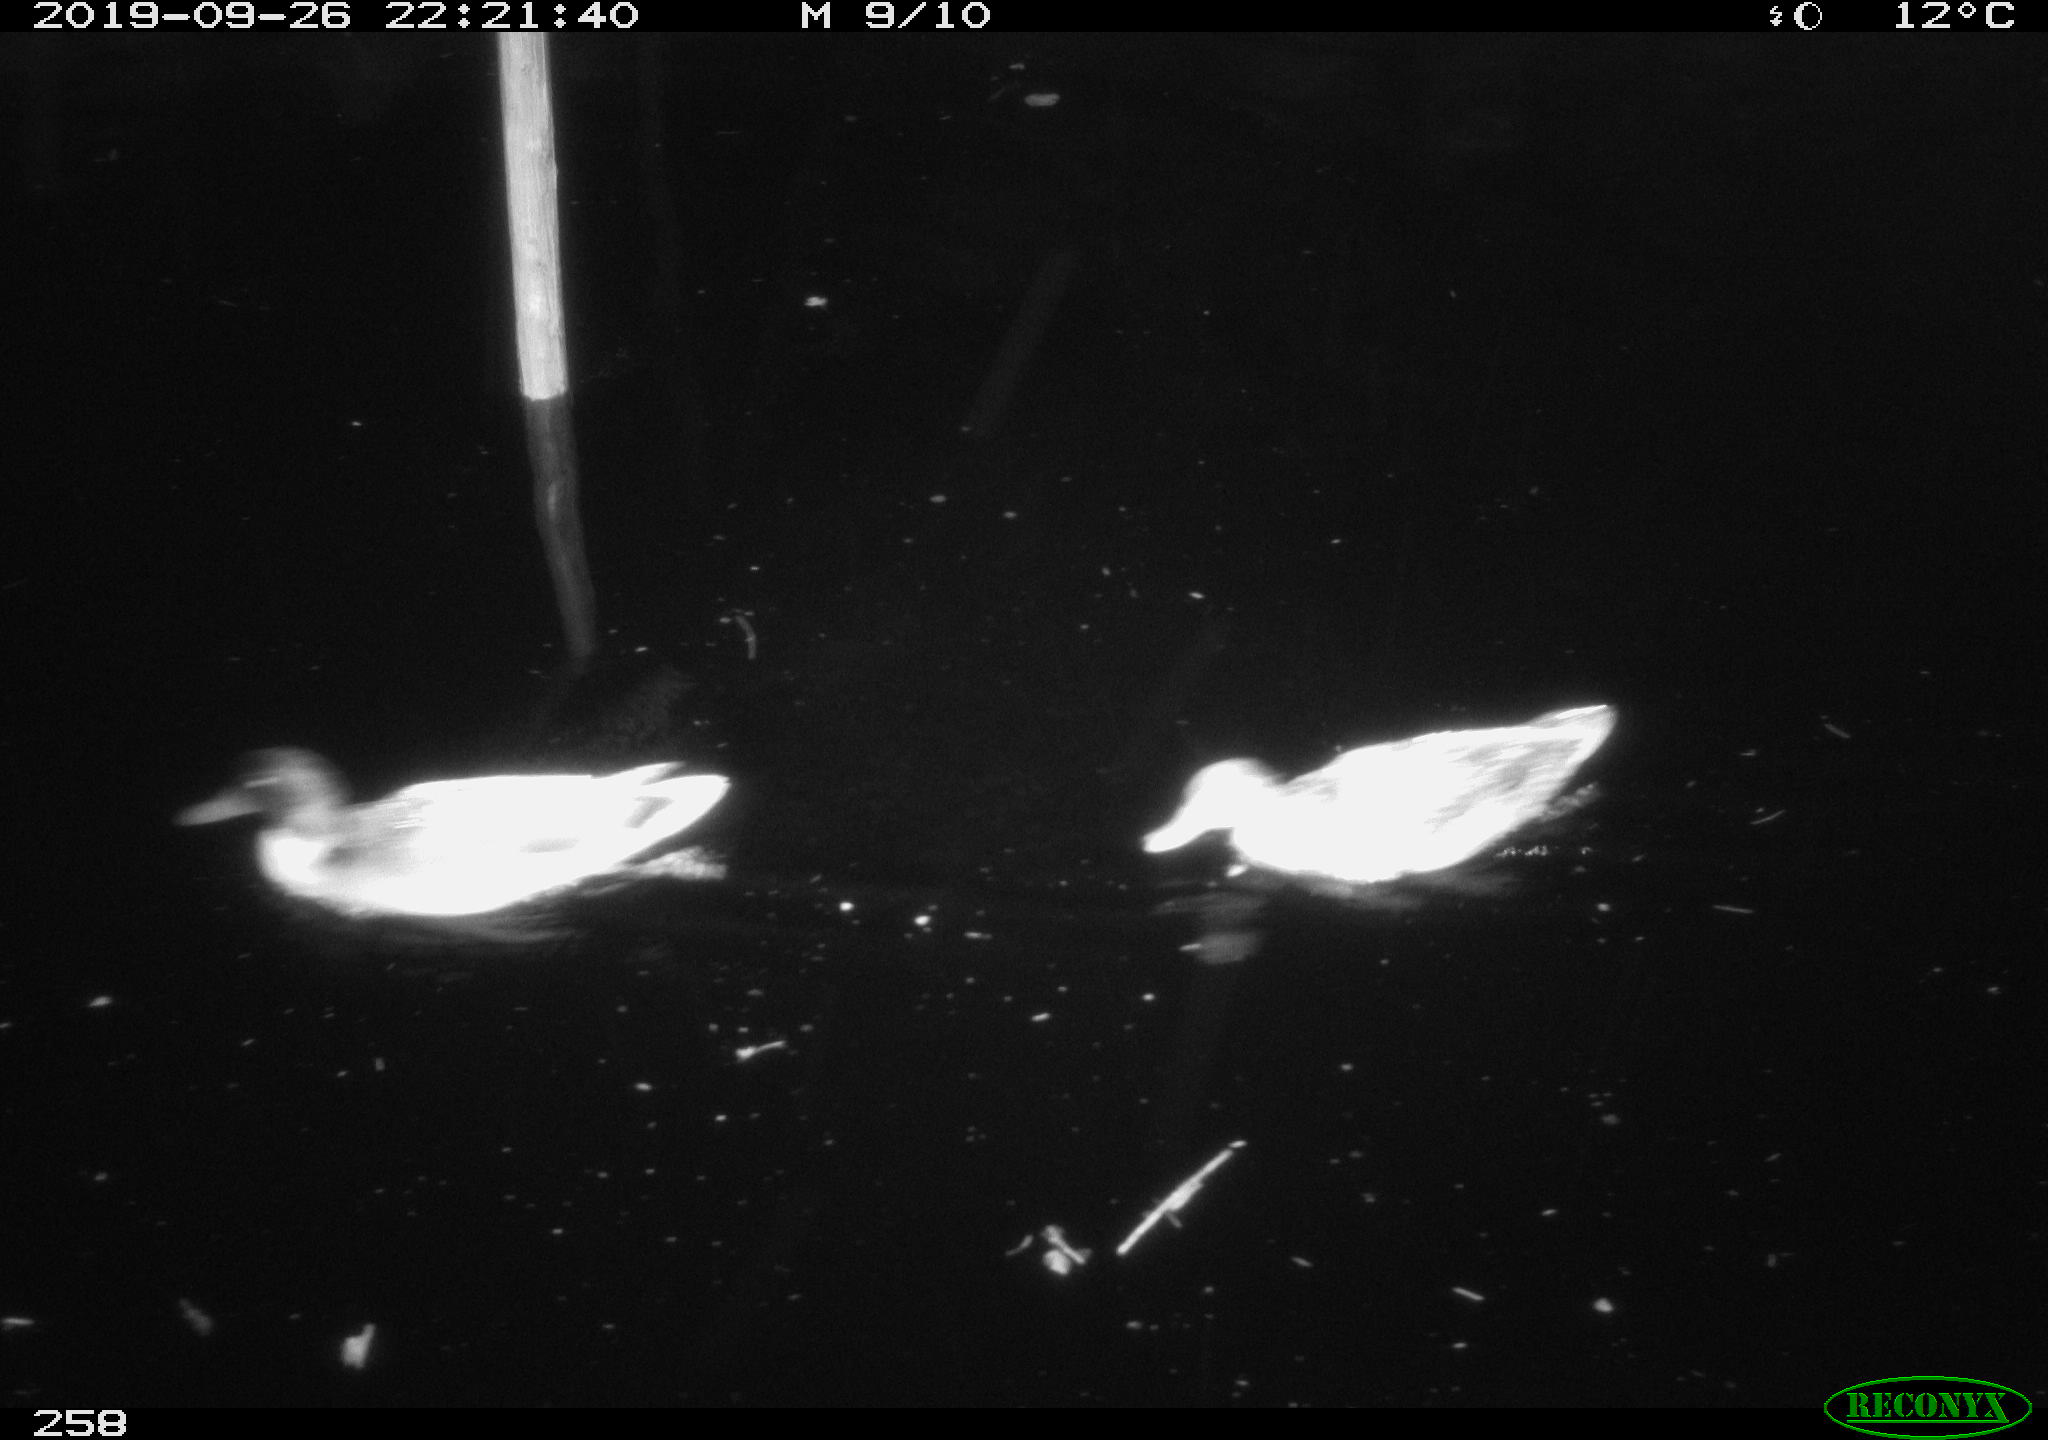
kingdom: Animalia
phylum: Chordata
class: Aves
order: Anseriformes
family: Anatidae
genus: Anas
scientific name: Anas platyrhynchos
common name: Mallard
